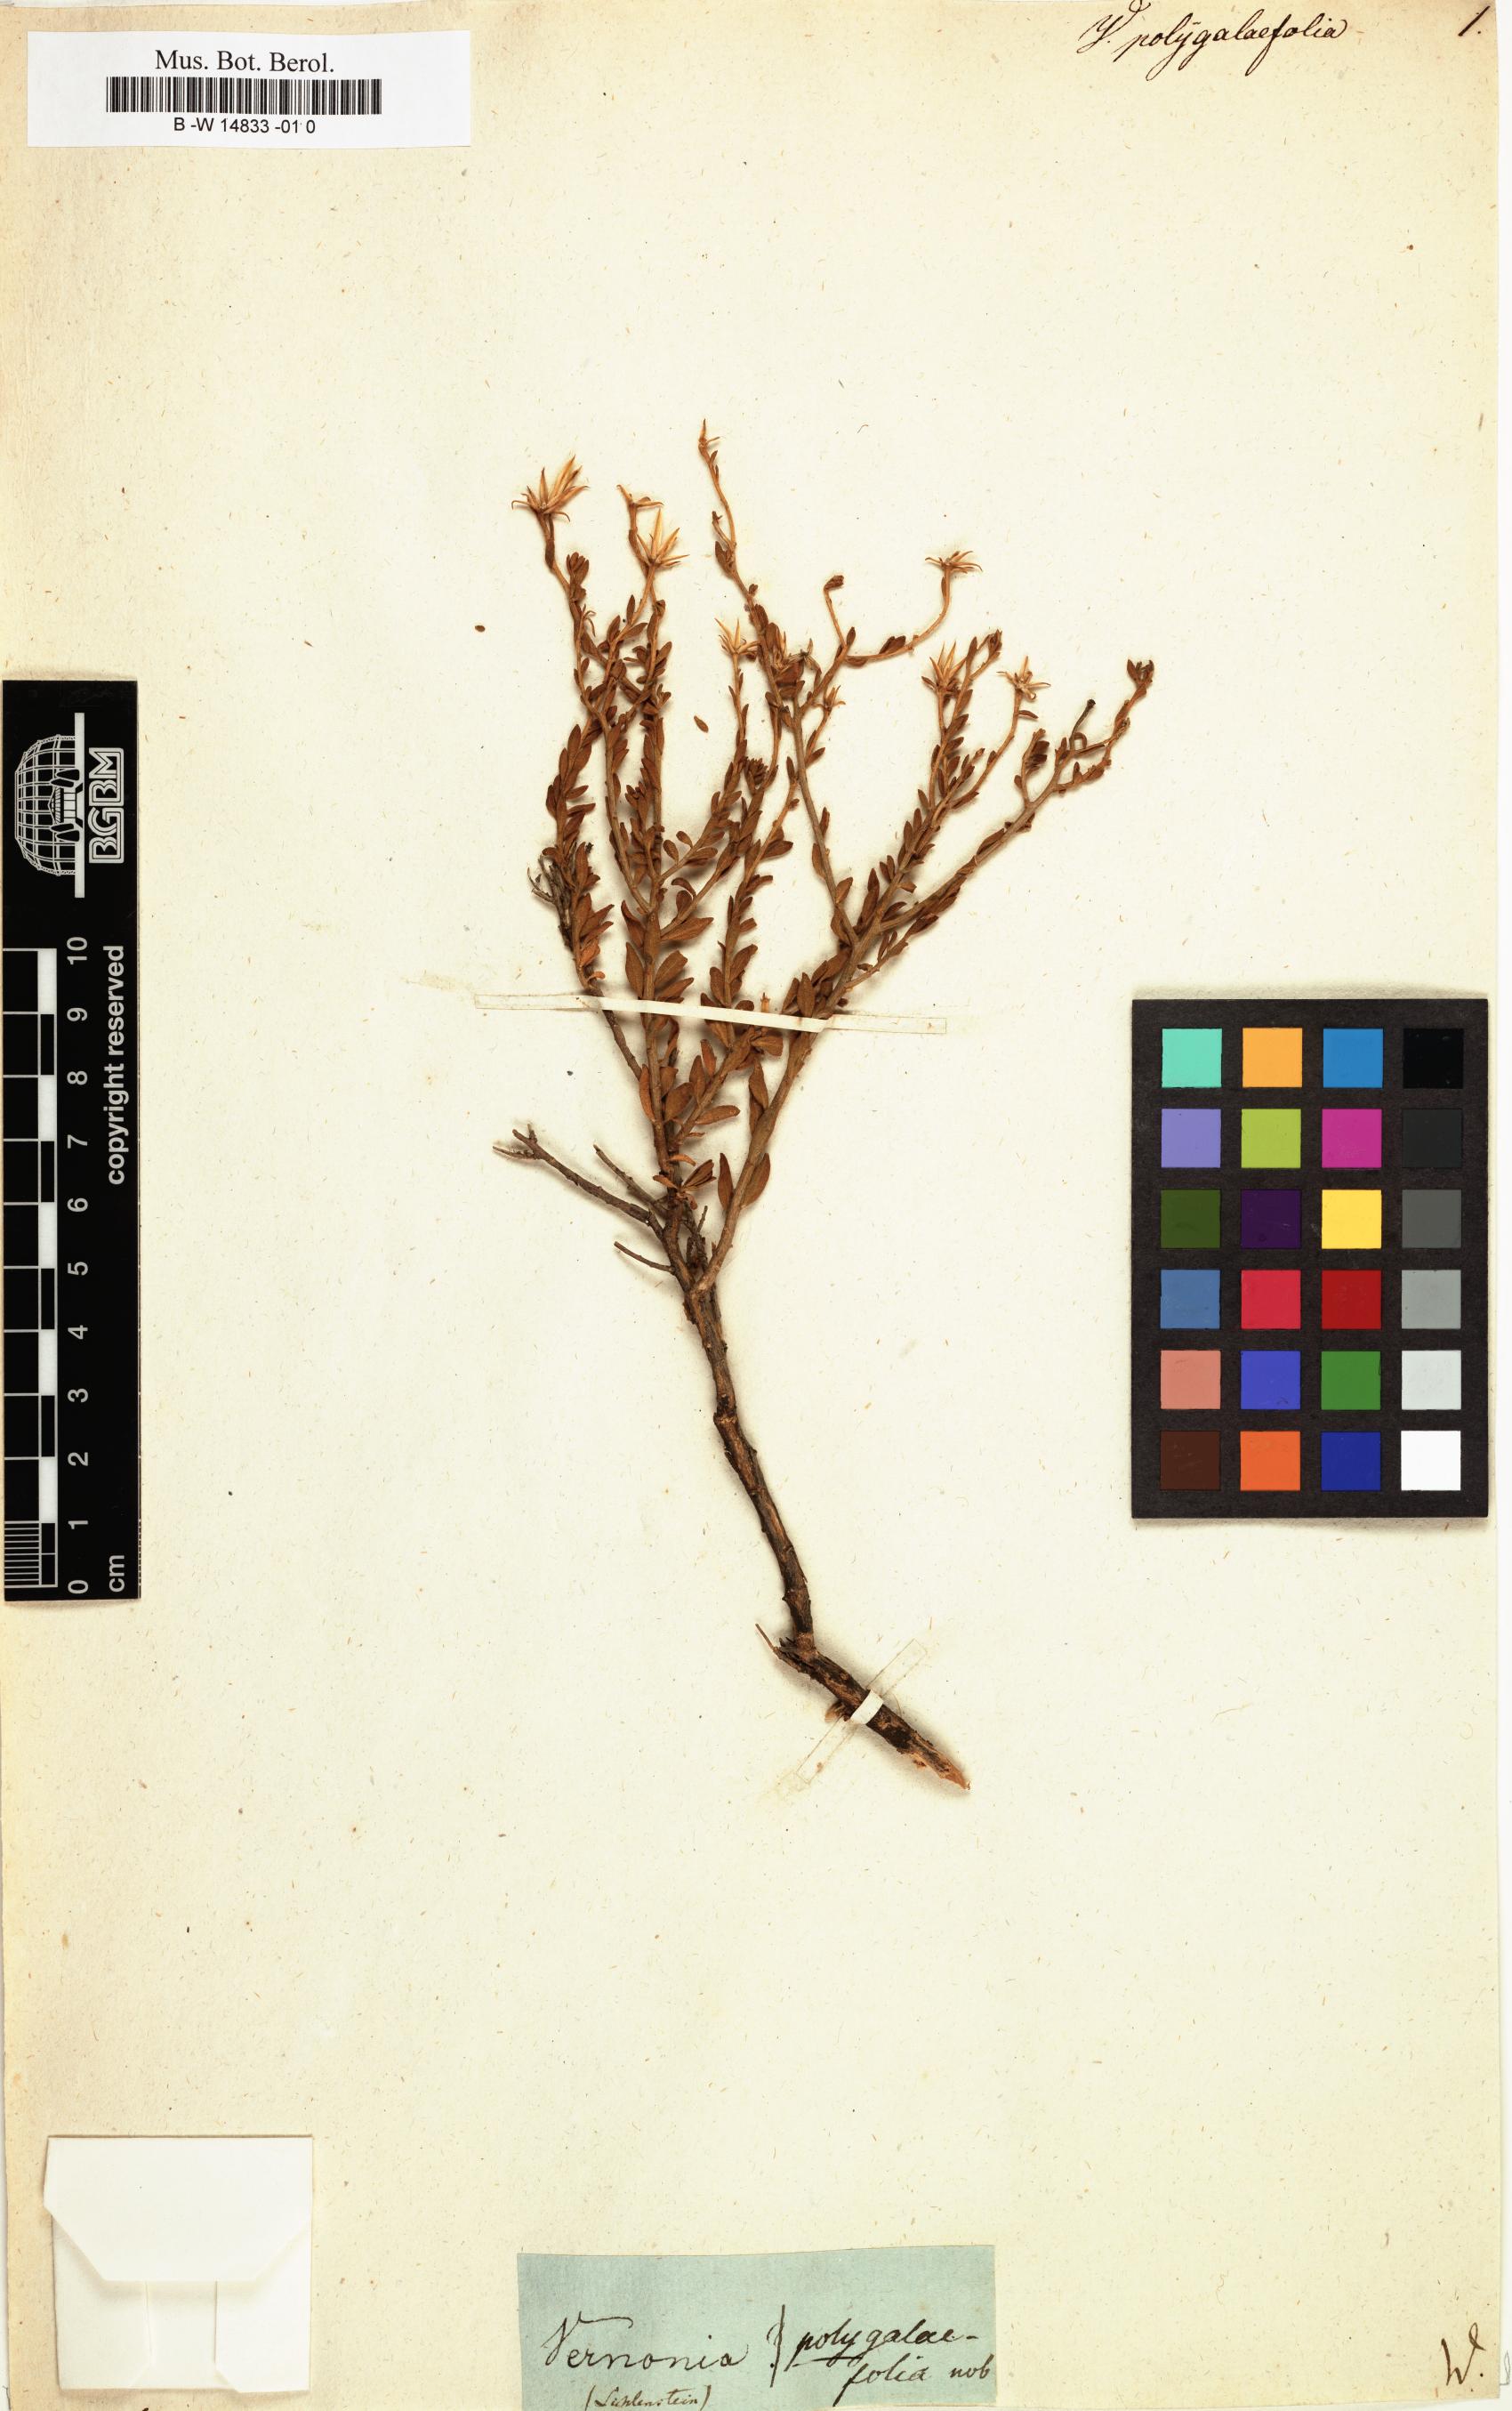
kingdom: Plantae
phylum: Tracheophyta
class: Magnoliopsida
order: Asterales
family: Asteraceae
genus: Pegolettia
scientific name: Pegolettia retrofracta
